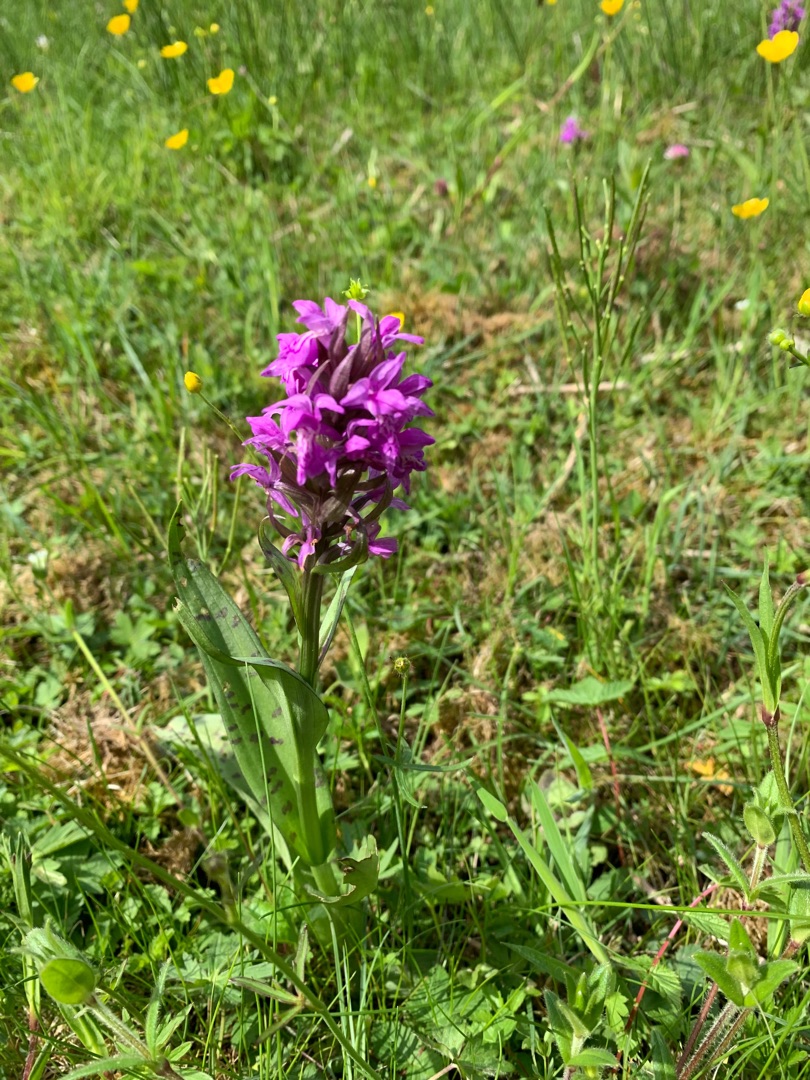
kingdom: Plantae
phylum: Tracheophyta
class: Liliopsida
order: Asparagales
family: Orchidaceae
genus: Dactylorhiza
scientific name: Dactylorhiza majalis
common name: Maj-gøgeurt
